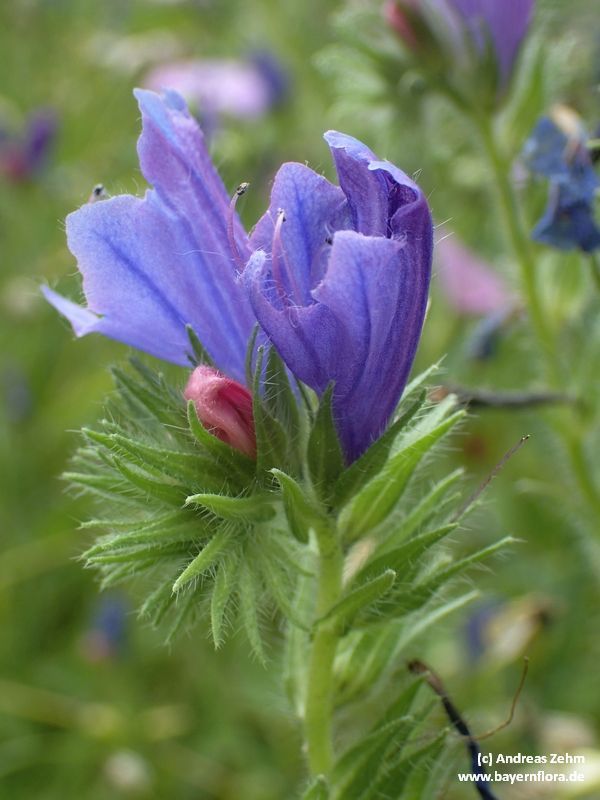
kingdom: Plantae
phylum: Tracheophyta
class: Magnoliopsida
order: Boraginales
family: Boraginaceae
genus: Echium
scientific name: Echium plantagineum
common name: Purple viper's-bugloss
